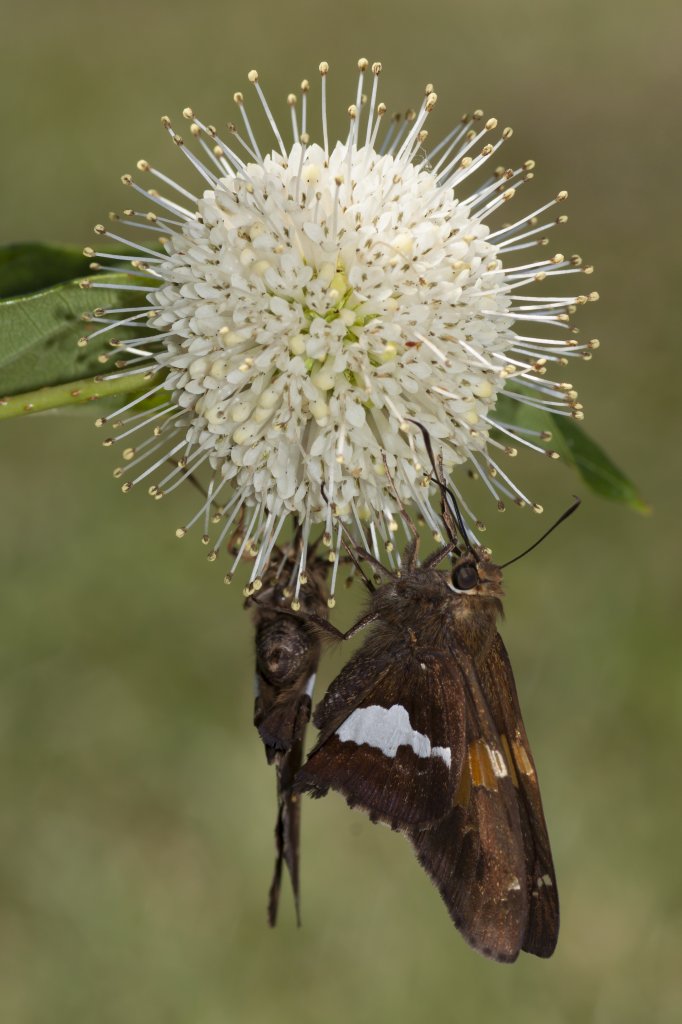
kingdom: Animalia
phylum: Arthropoda
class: Insecta
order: Lepidoptera
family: Hesperiidae
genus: Epargyreus
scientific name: Epargyreus clarus
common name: Silver-spotted Skipper
